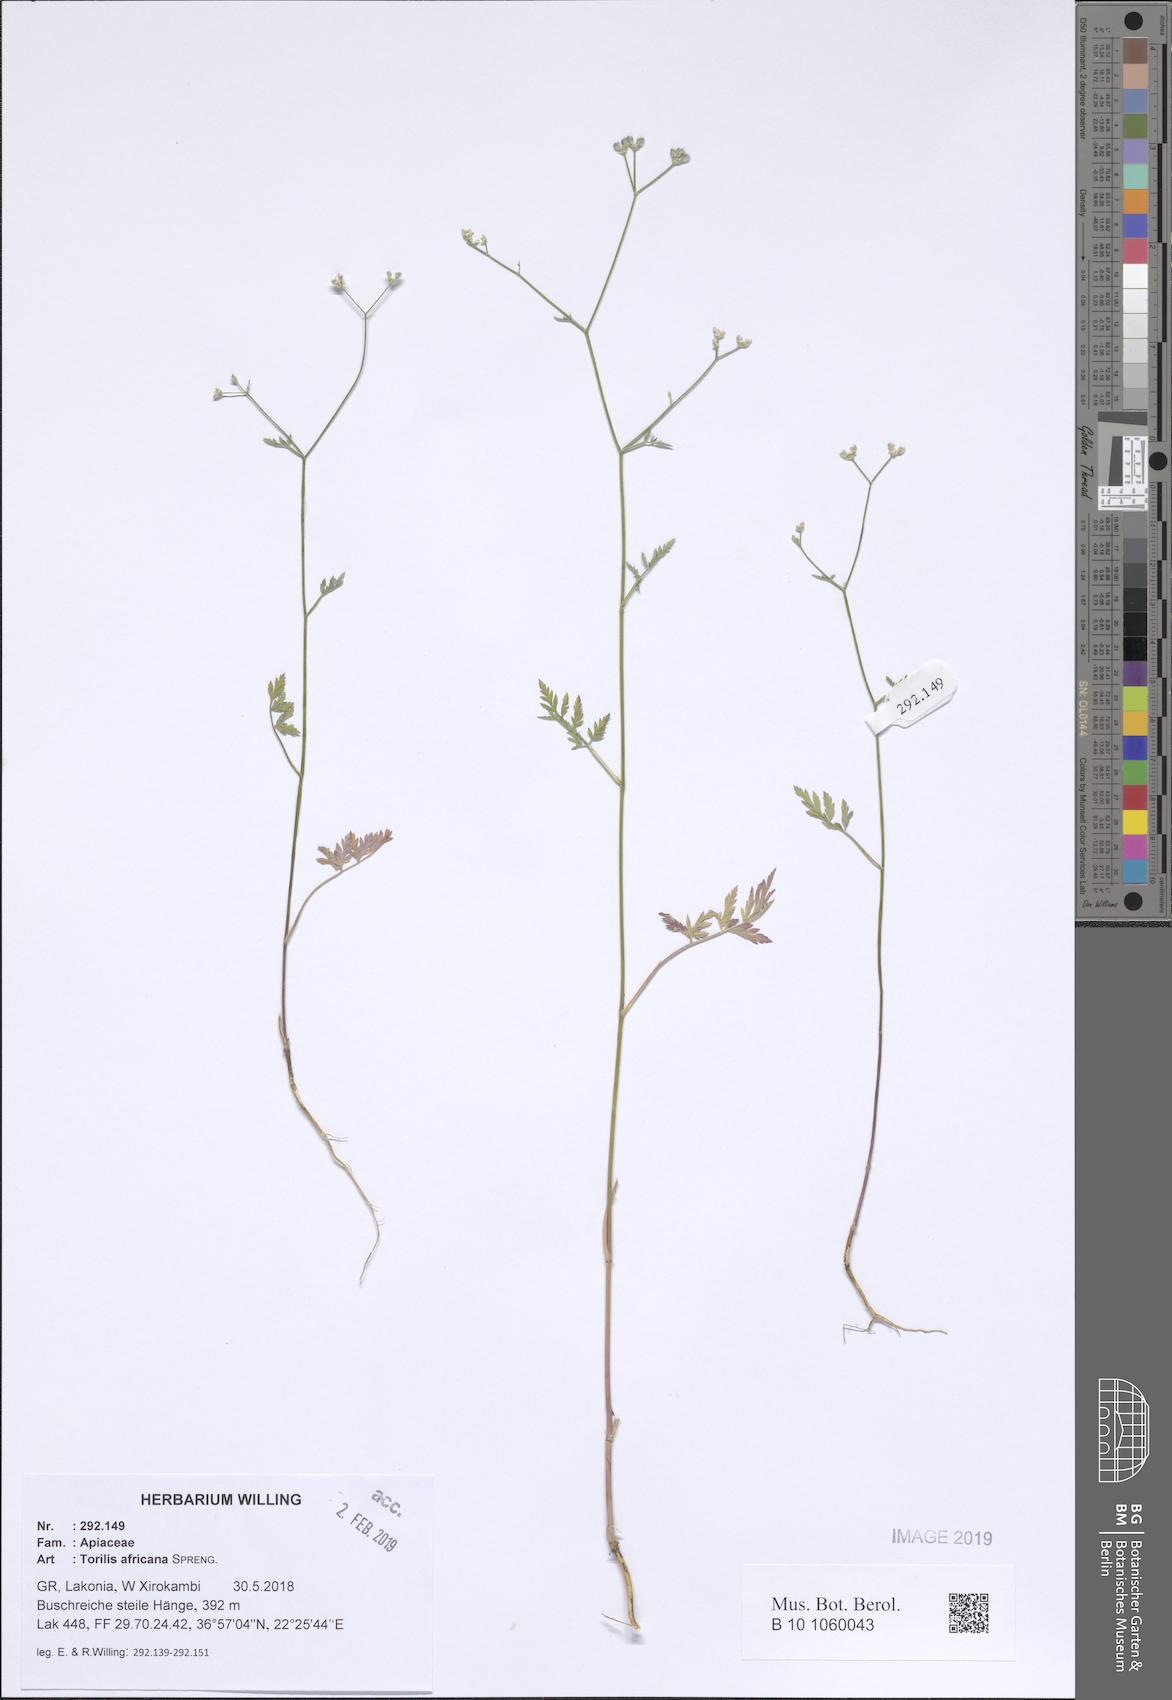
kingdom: Plantae
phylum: Tracheophyta
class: Magnoliopsida
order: Apiales
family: Apiaceae
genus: Torilis
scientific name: Torilis africana
